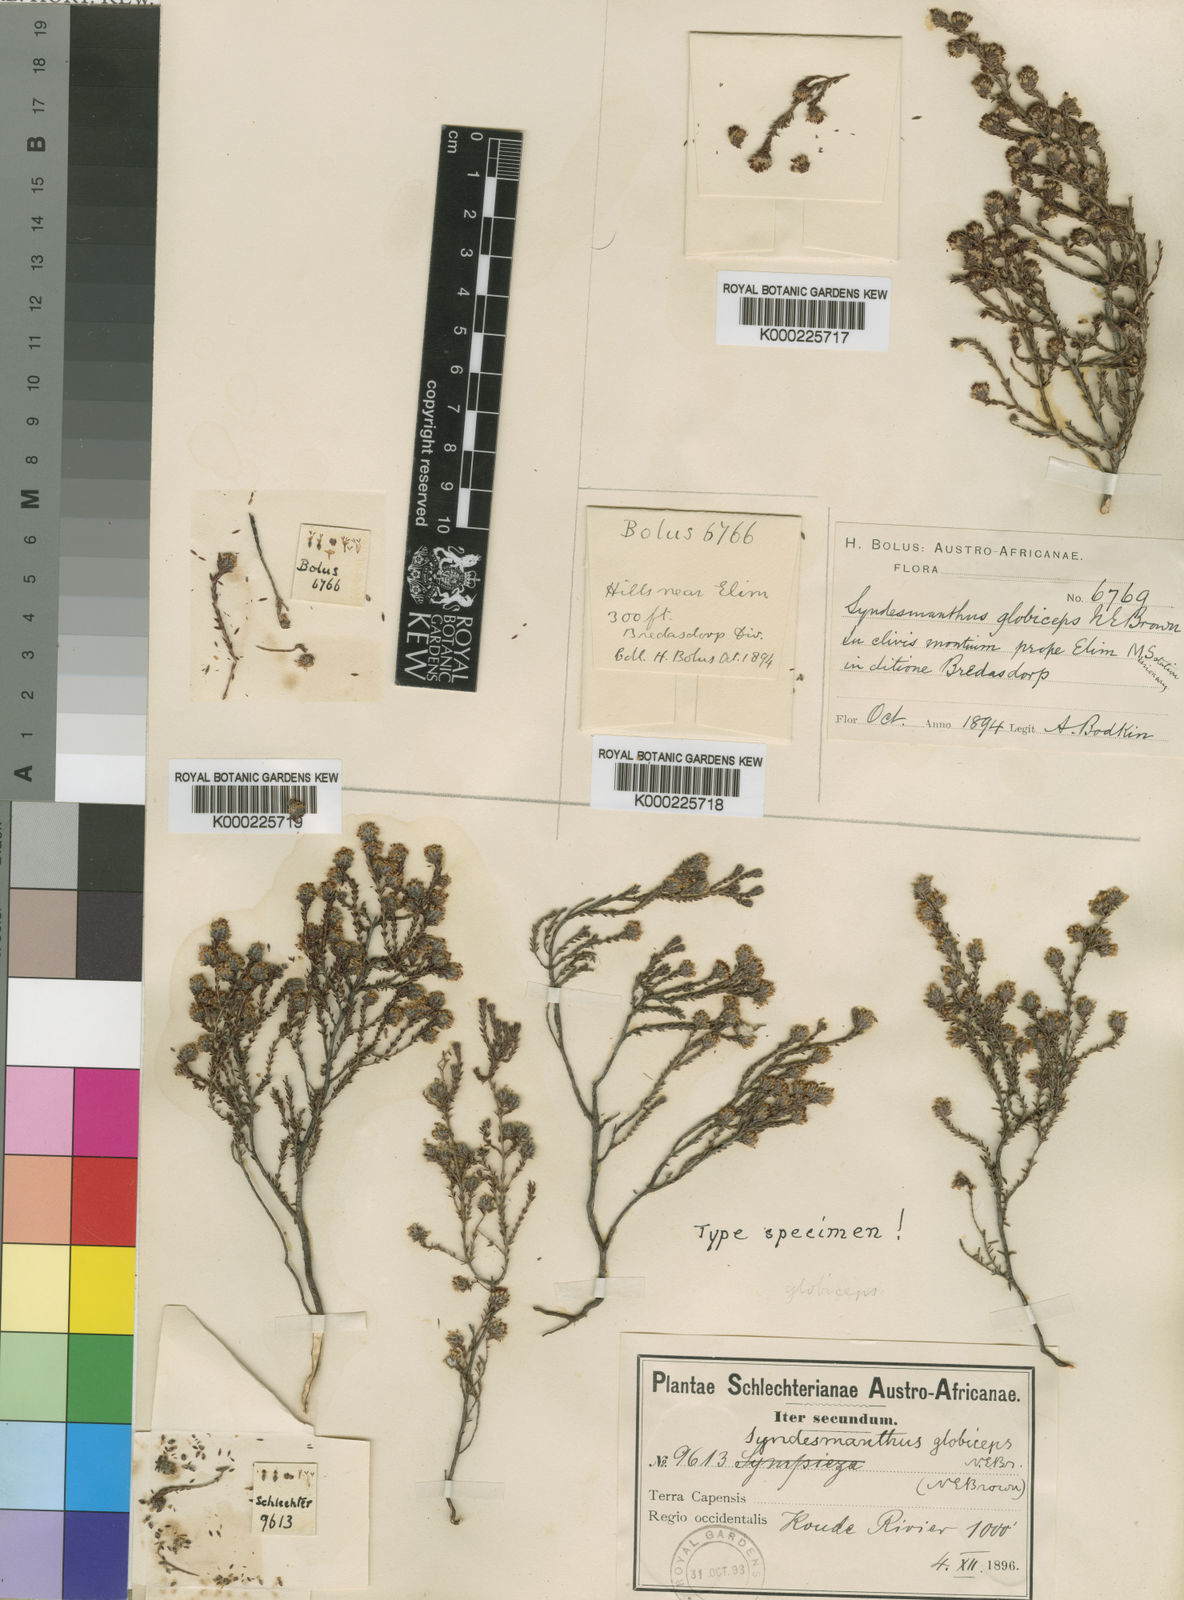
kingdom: Plantae
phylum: Tracheophyta
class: Magnoliopsida
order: Ericales
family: Ericaceae
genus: Erica
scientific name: Erica globiceps
